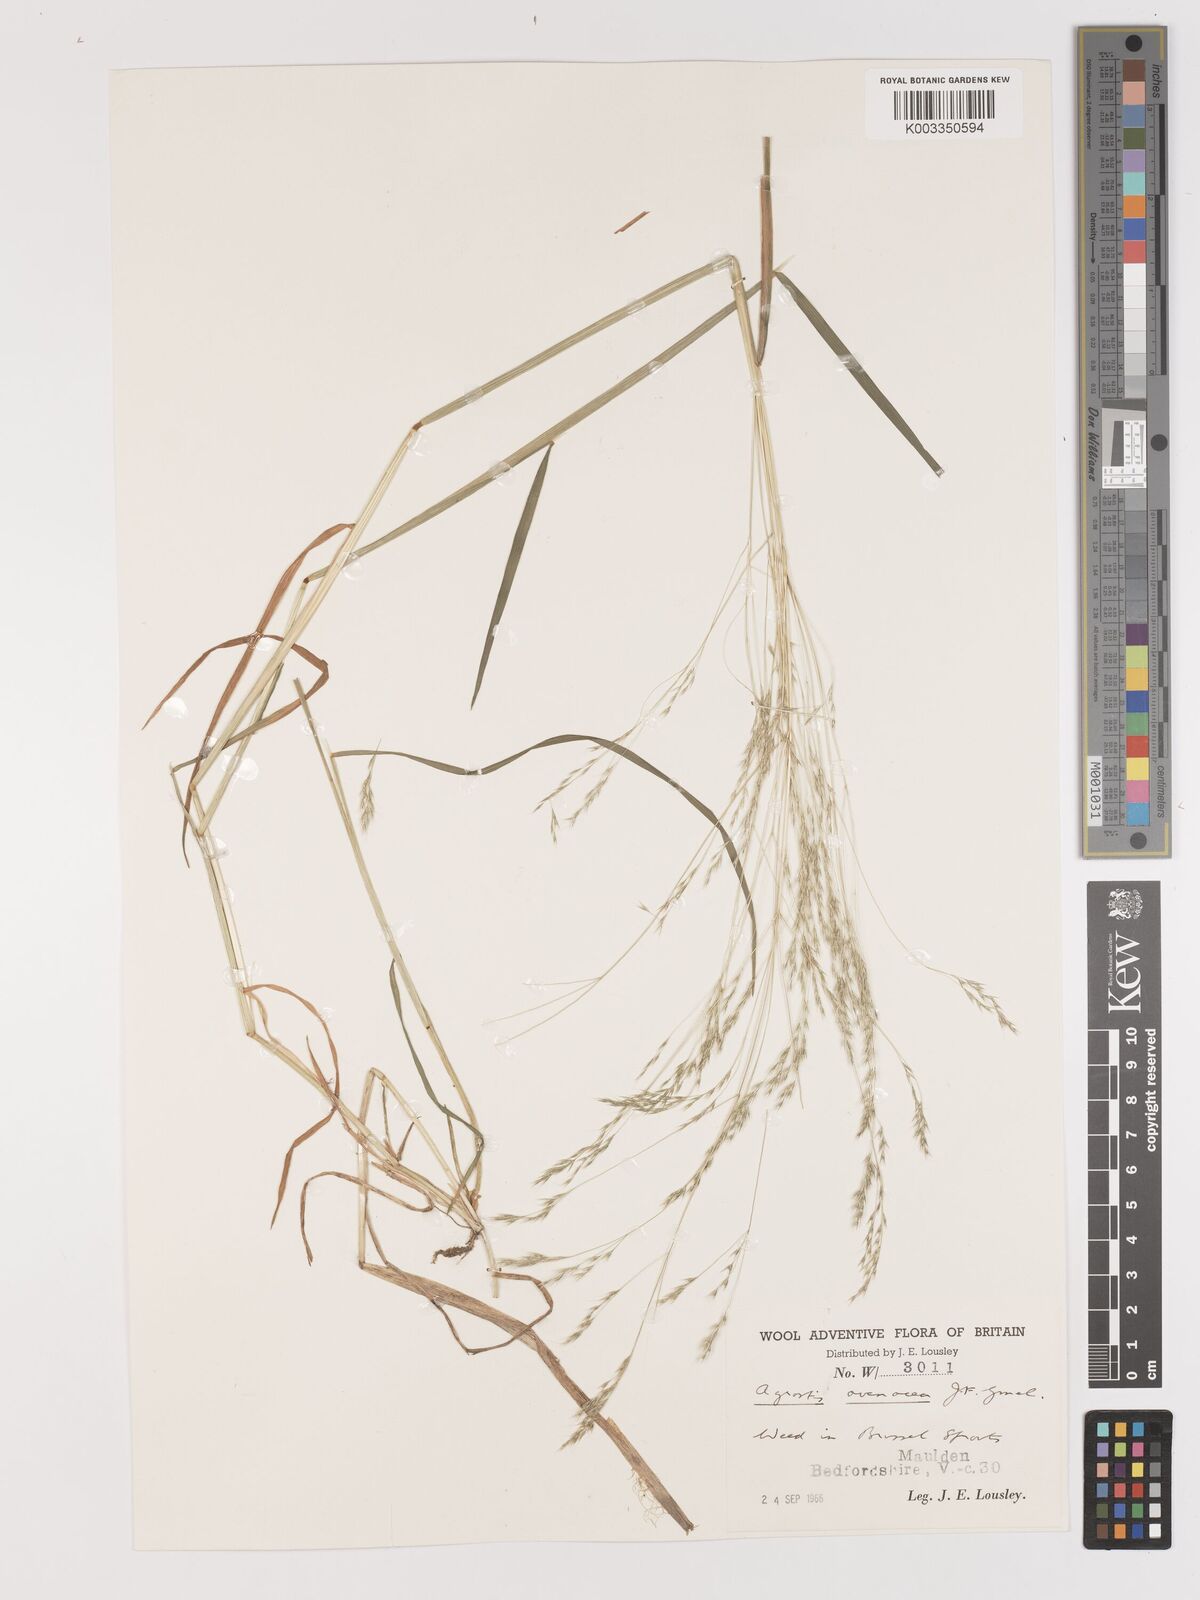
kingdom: Plantae
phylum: Tracheophyta
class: Liliopsida
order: Poales
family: Poaceae
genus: Lachnagrostis
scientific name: Lachnagrostis filiformis
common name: Bentgrass
